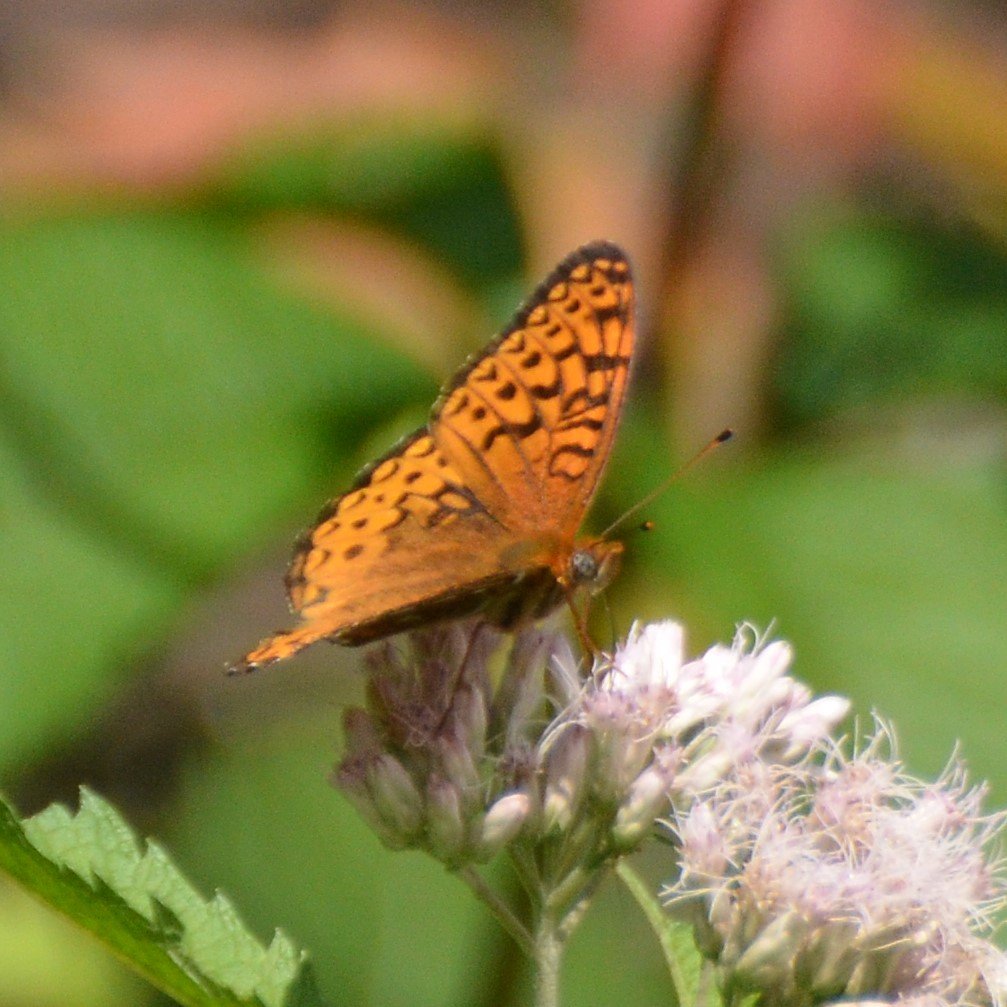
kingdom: Animalia
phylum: Arthropoda
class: Insecta
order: Lepidoptera
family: Nymphalidae
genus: Speyeria
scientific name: Speyeria atlantis
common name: Atlantis Fritillary
